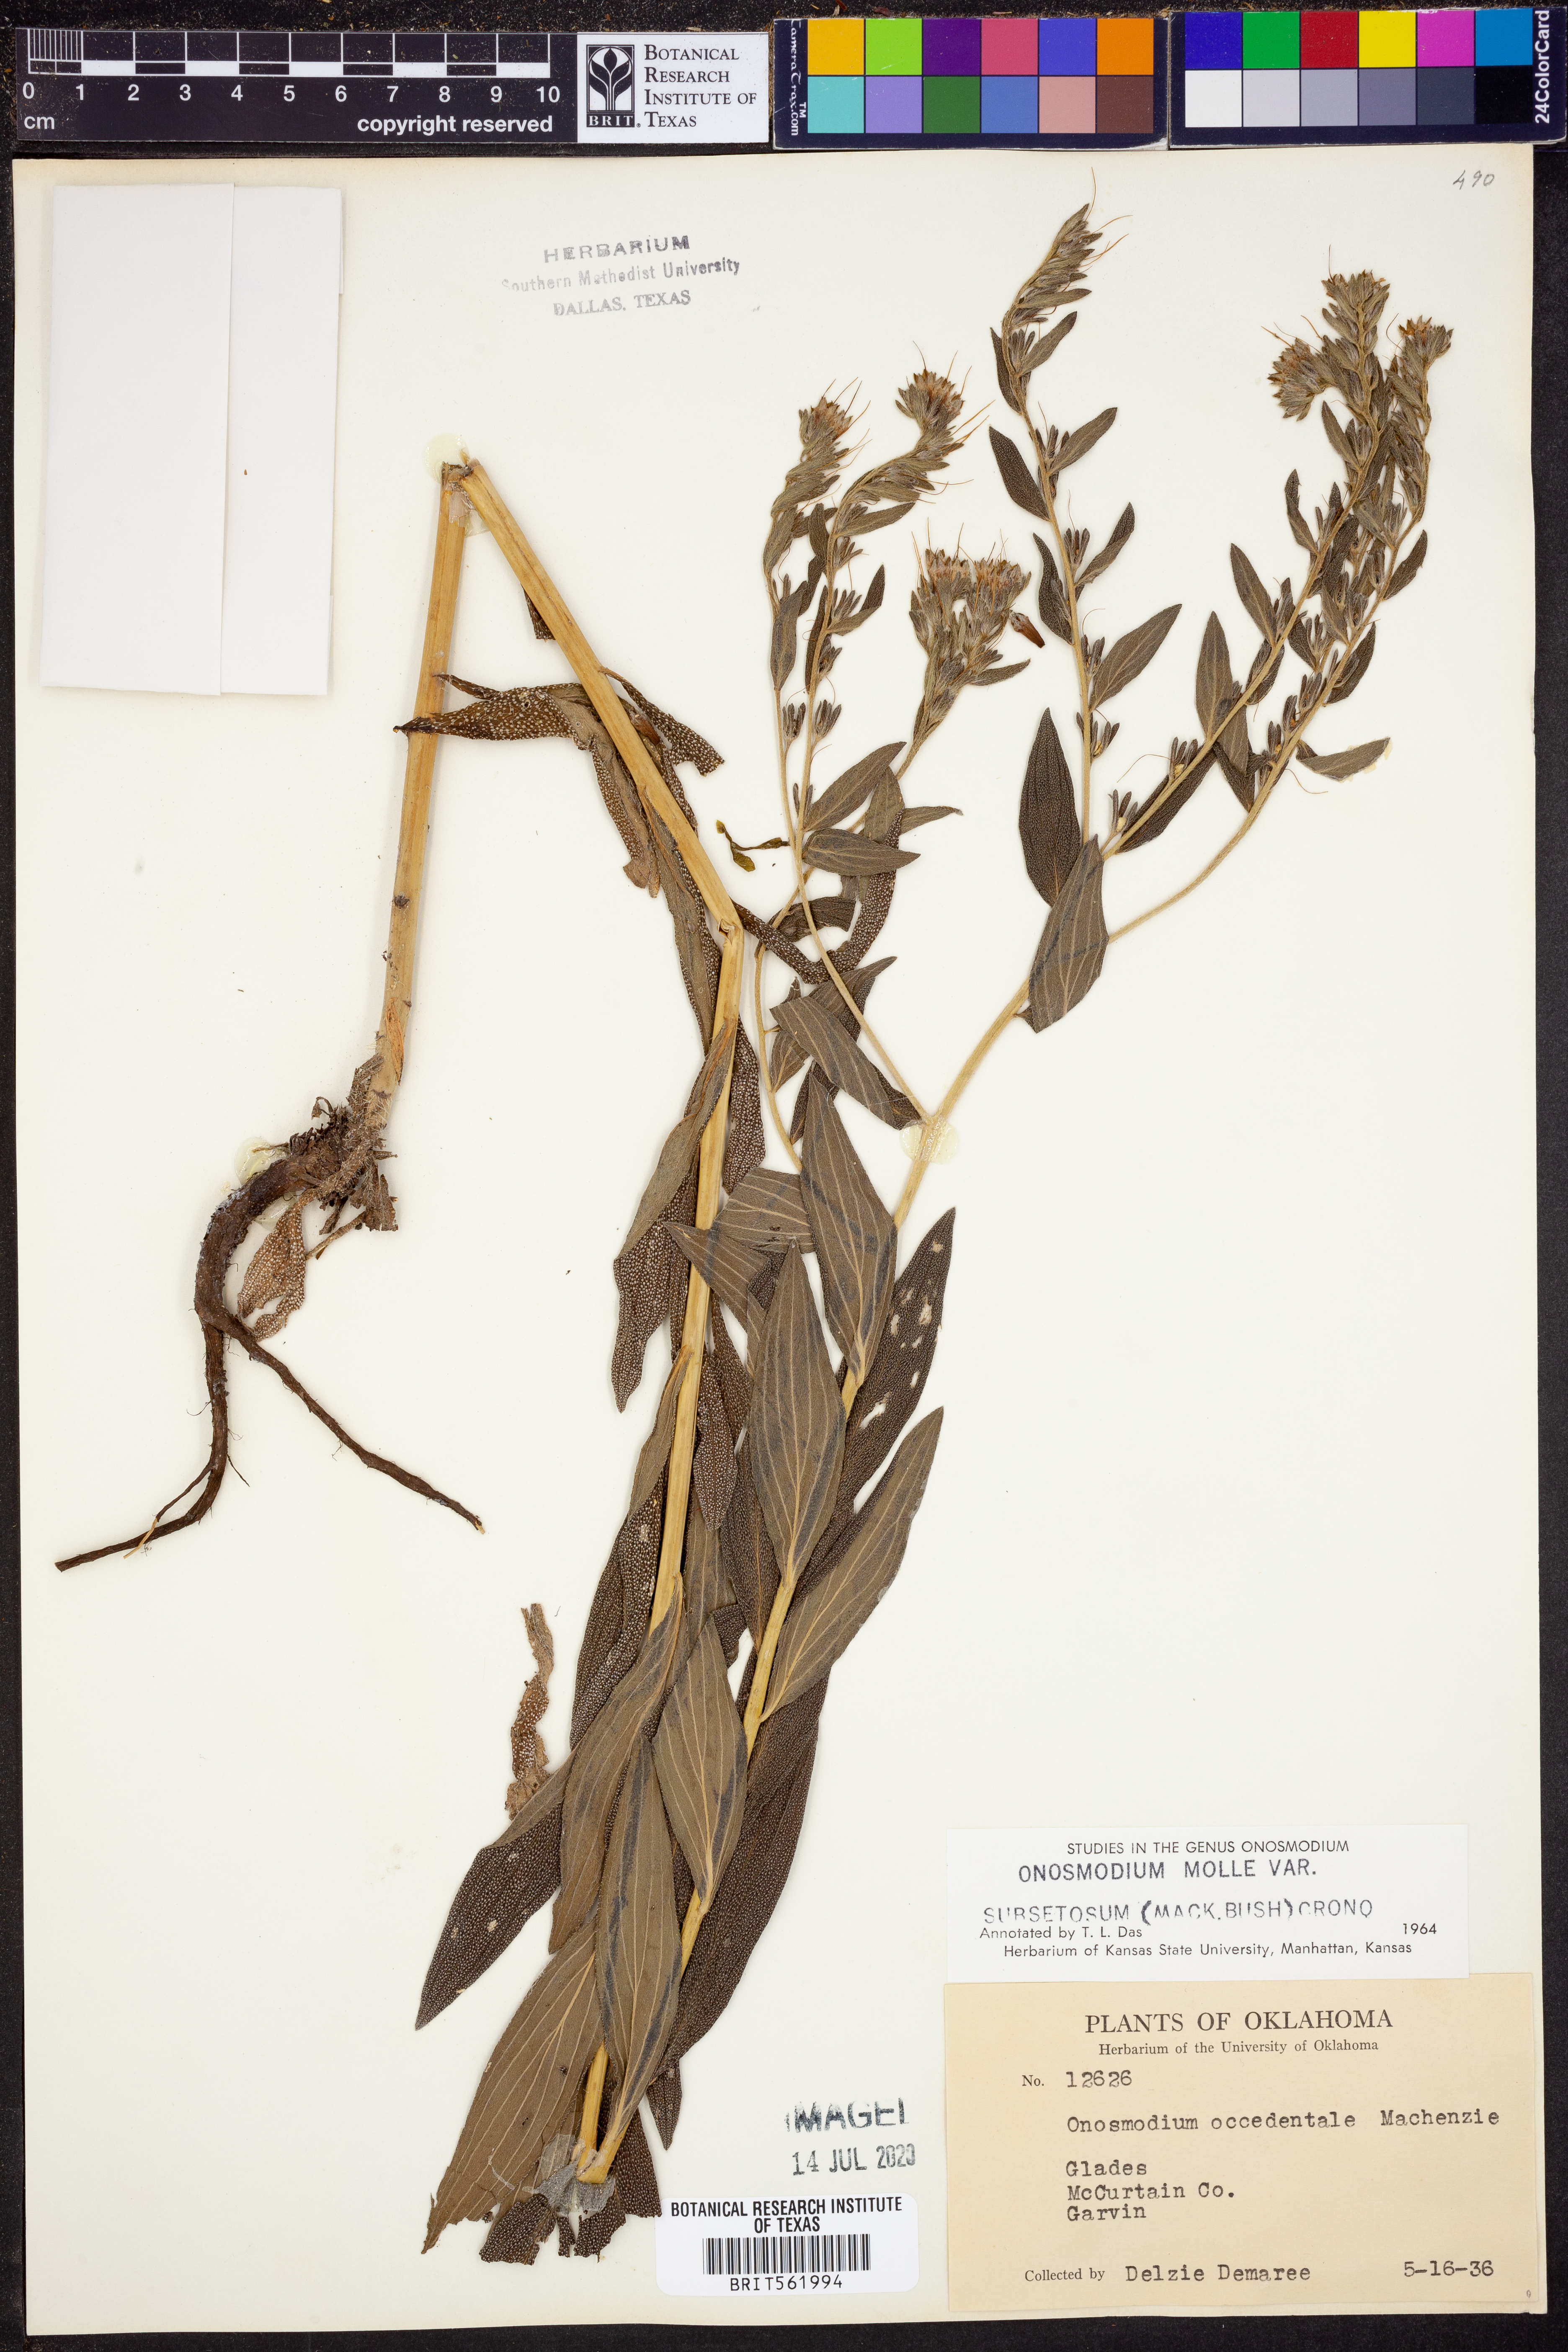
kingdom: Plantae
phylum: Tracheophyta
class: Magnoliopsida
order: Boraginales
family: Boraginaceae
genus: Lithospermum
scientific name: Lithospermum subsetosum
